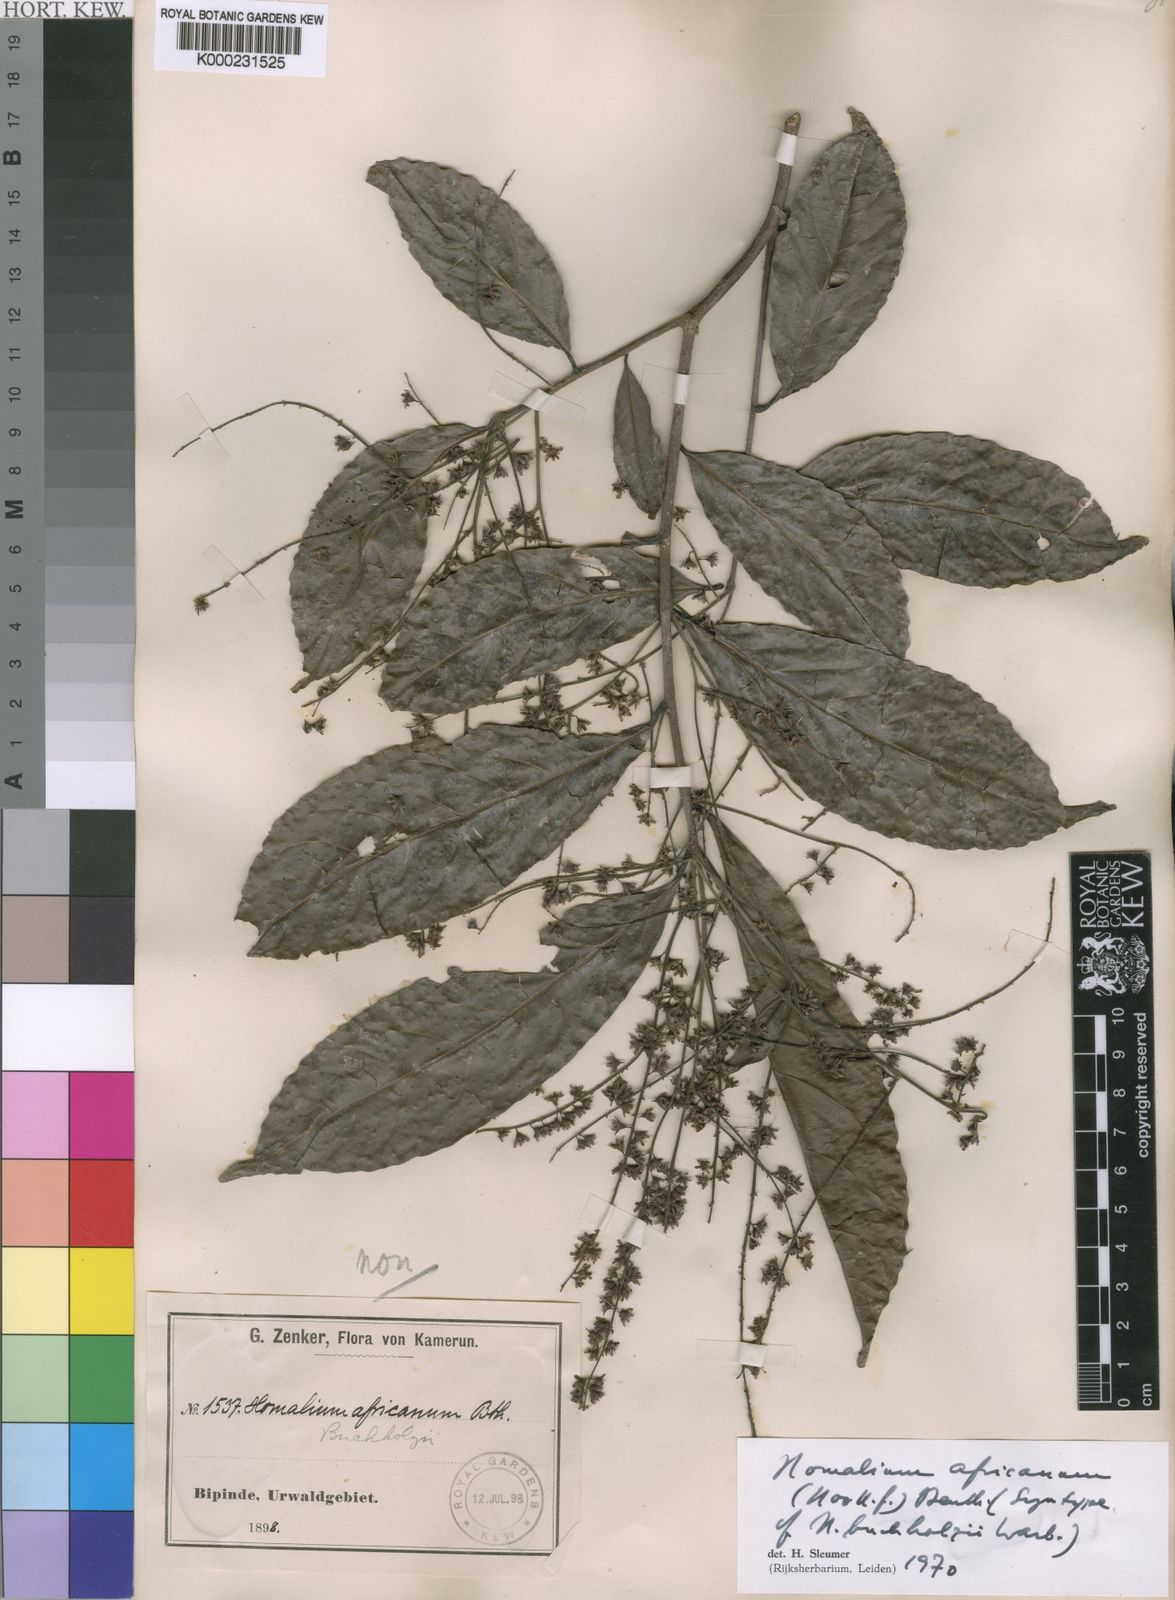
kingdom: Plantae
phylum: Tracheophyta
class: Magnoliopsida
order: Malpighiales
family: Salicaceae
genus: Homalium
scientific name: Homalium africanum
